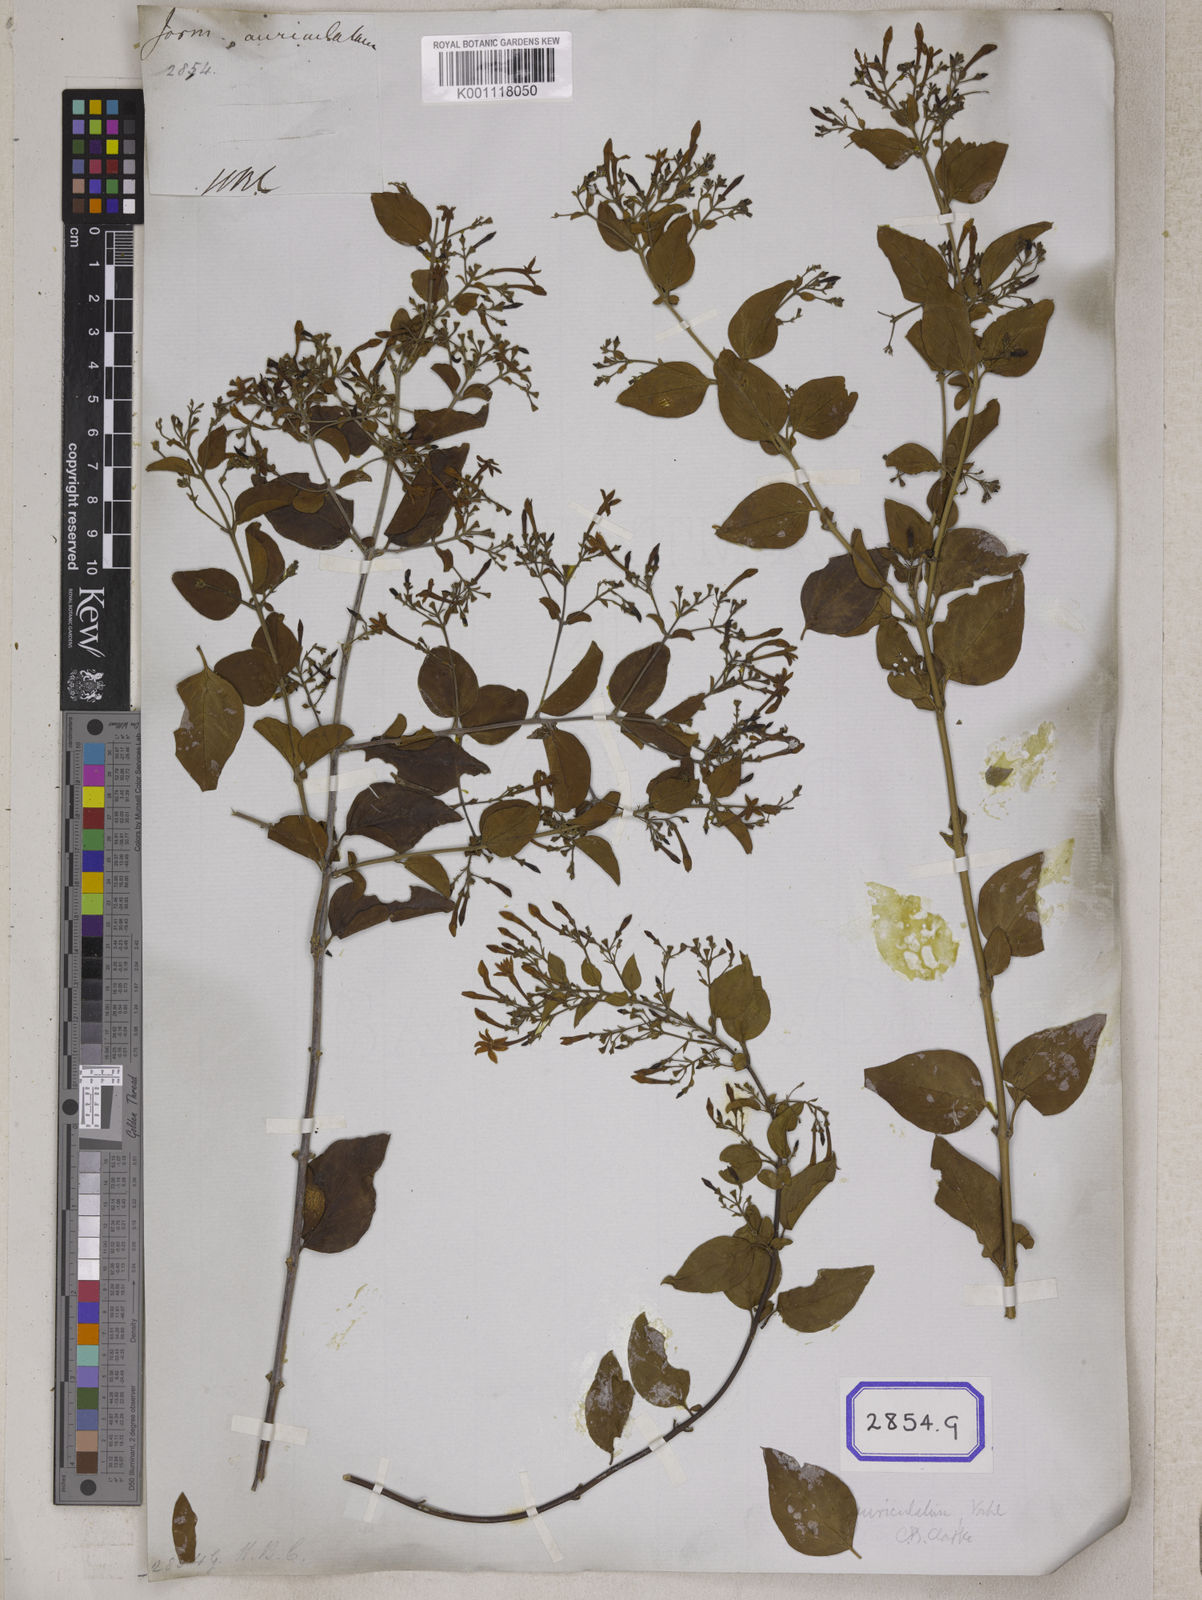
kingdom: Plantae
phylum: Tracheophyta
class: Magnoliopsida
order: Lamiales
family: Oleaceae
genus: Jasminum
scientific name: Jasminum auriculatum
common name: Needle-flower jasmine
